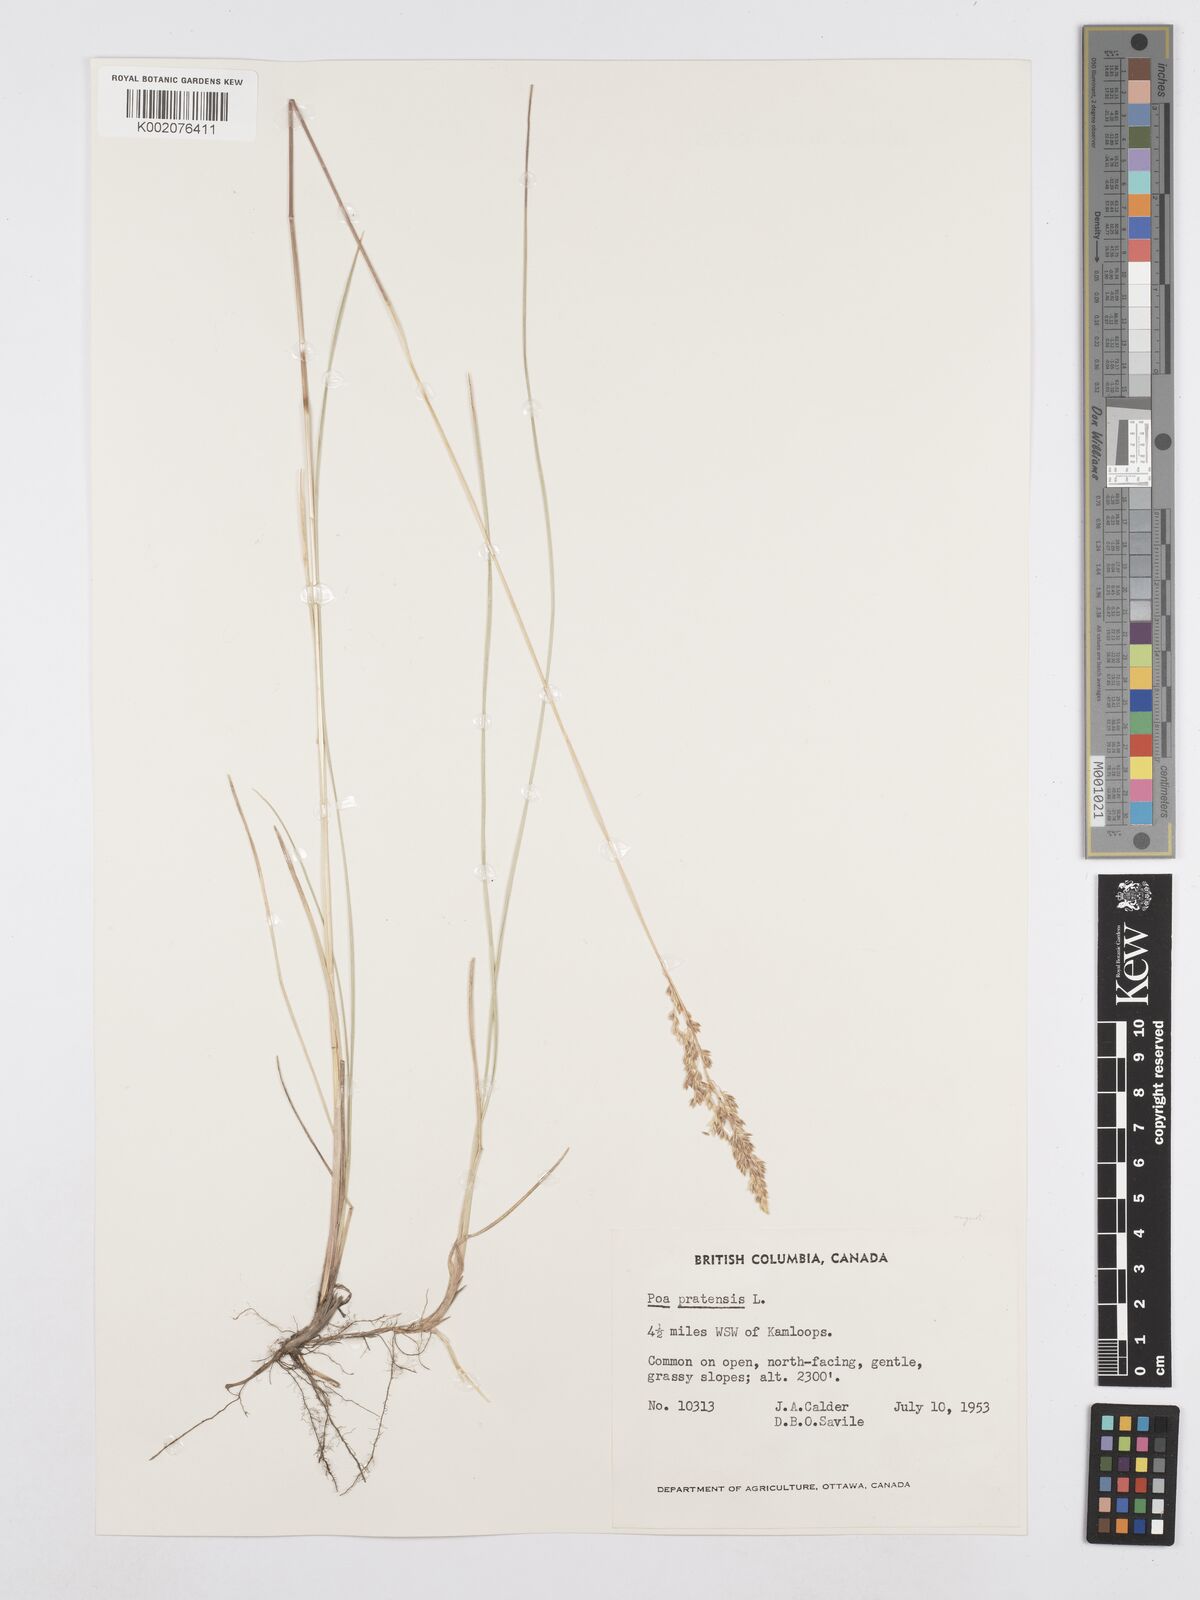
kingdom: Plantae
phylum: Tracheophyta
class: Liliopsida
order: Poales
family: Poaceae
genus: Poa
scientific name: Poa angustifolia
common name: Narrow-leaved meadow-grass
